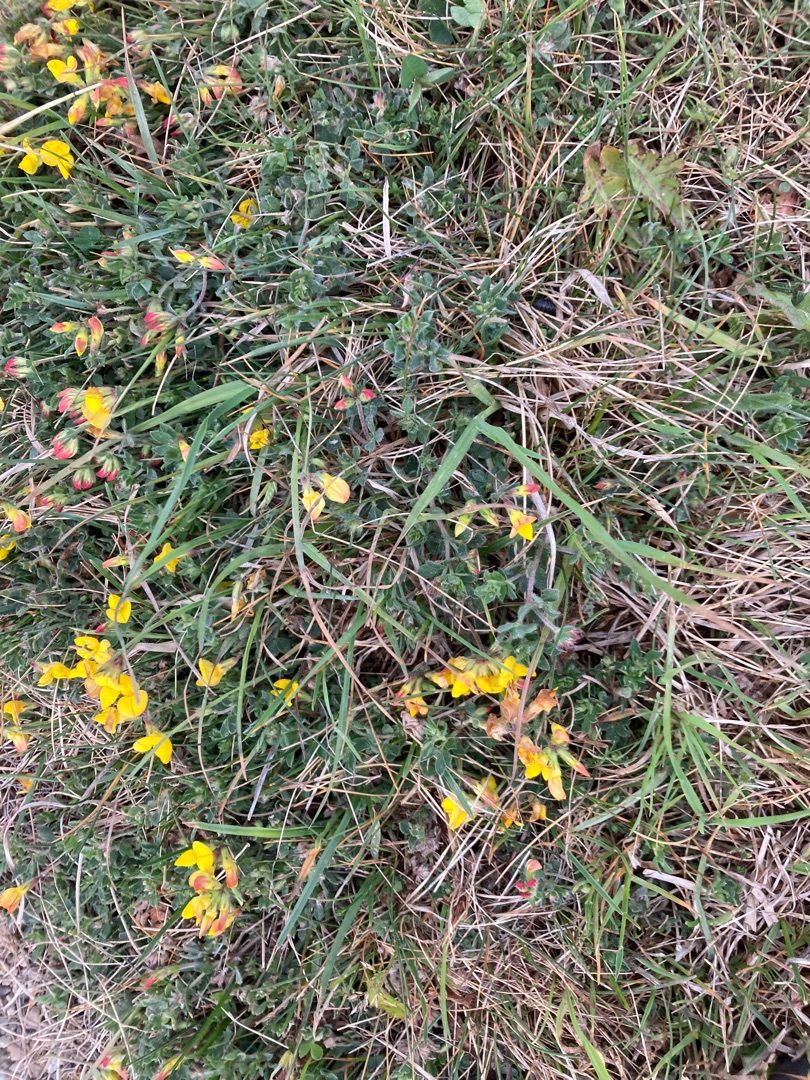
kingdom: Plantae
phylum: Tracheophyta
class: Magnoliopsida
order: Fabales
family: Fabaceae
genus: Lotus
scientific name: Lotus corniculatus
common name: Almindelig kællingetand
